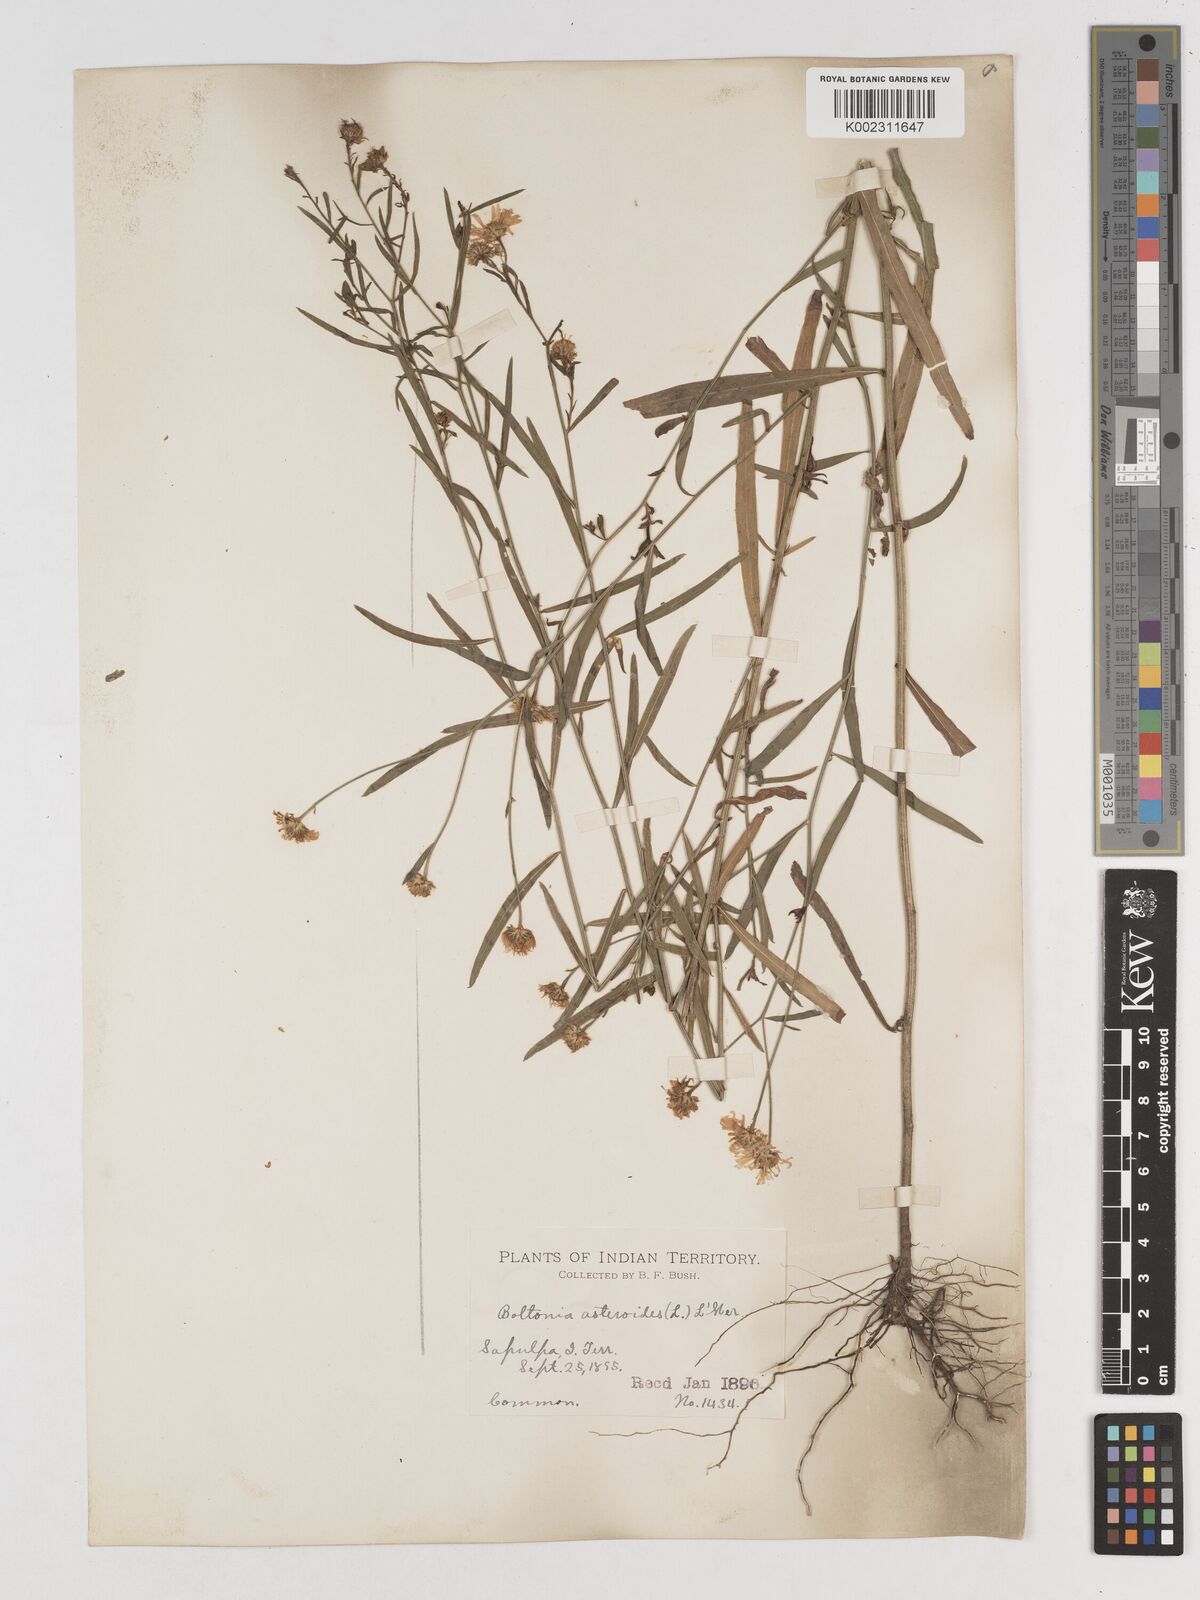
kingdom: Plantae
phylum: Tracheophyta
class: Magnoliopsida
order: Asterales
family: Asteraceae
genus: Boltonia
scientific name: Boltonia diffusa
